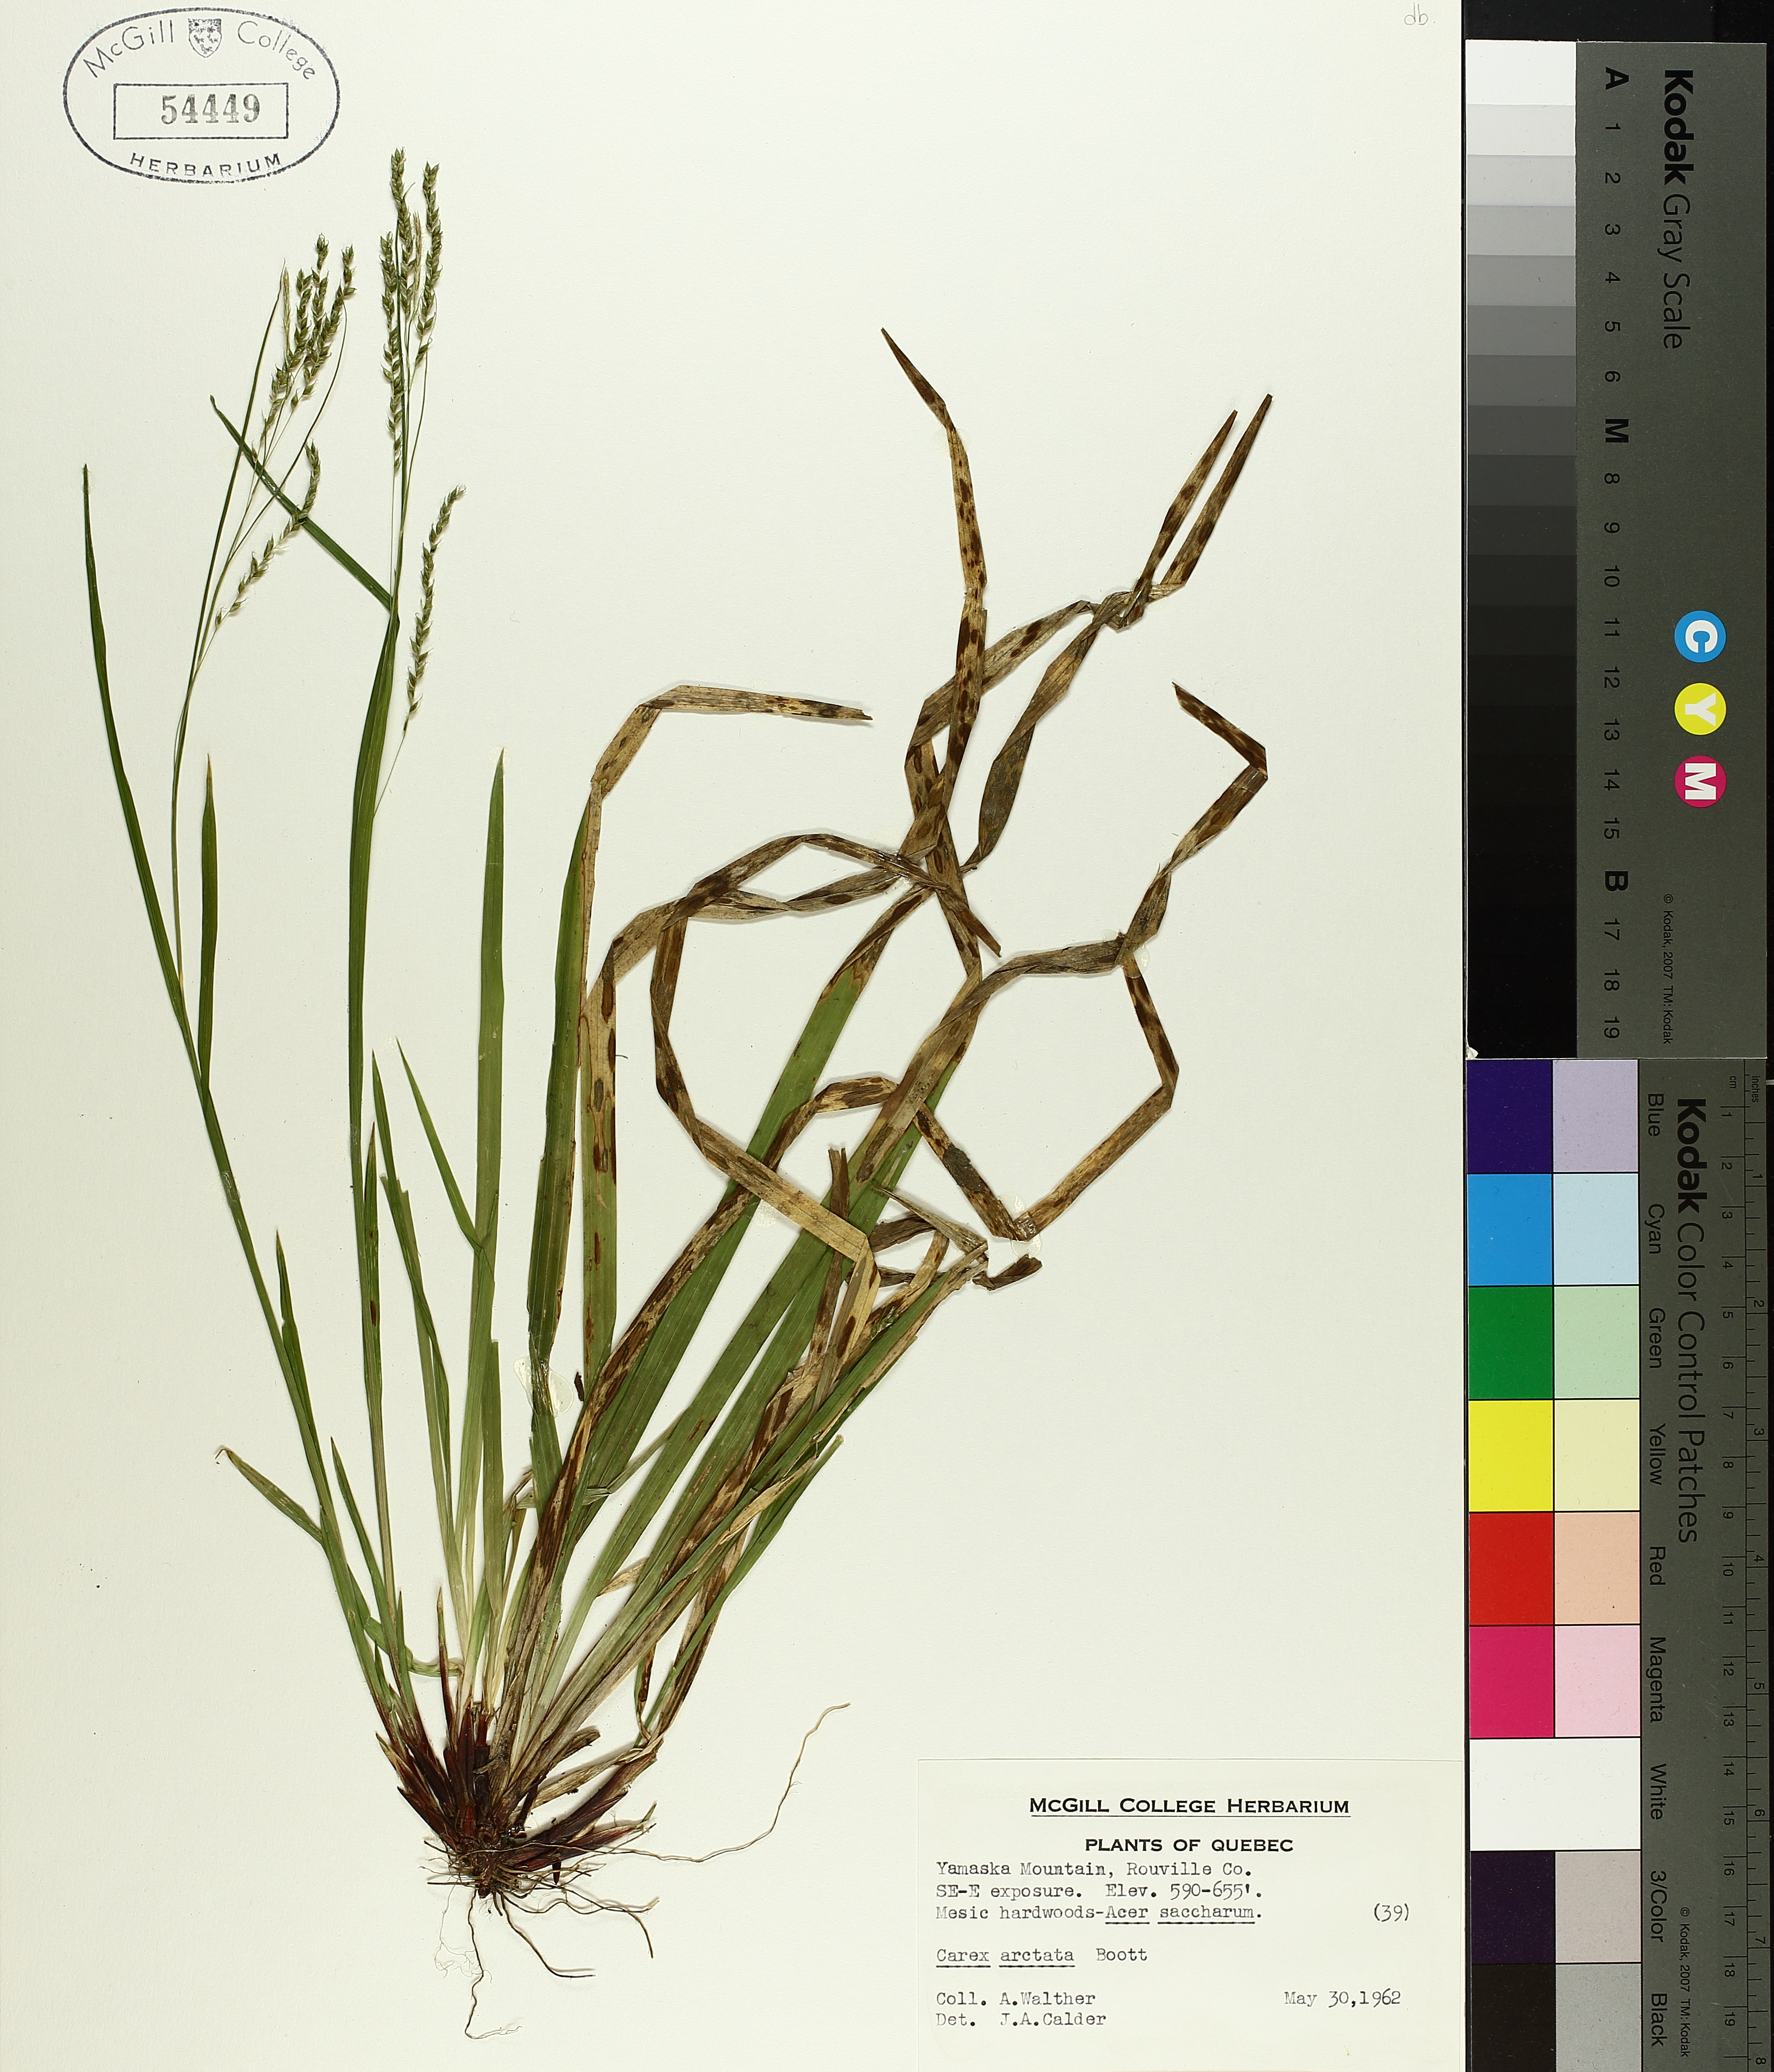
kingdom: Plantae
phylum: Tracheophyta
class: Liliopsida
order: Poales
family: Cyperaceae
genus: Carex
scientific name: Carex arctata
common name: Black sedge
